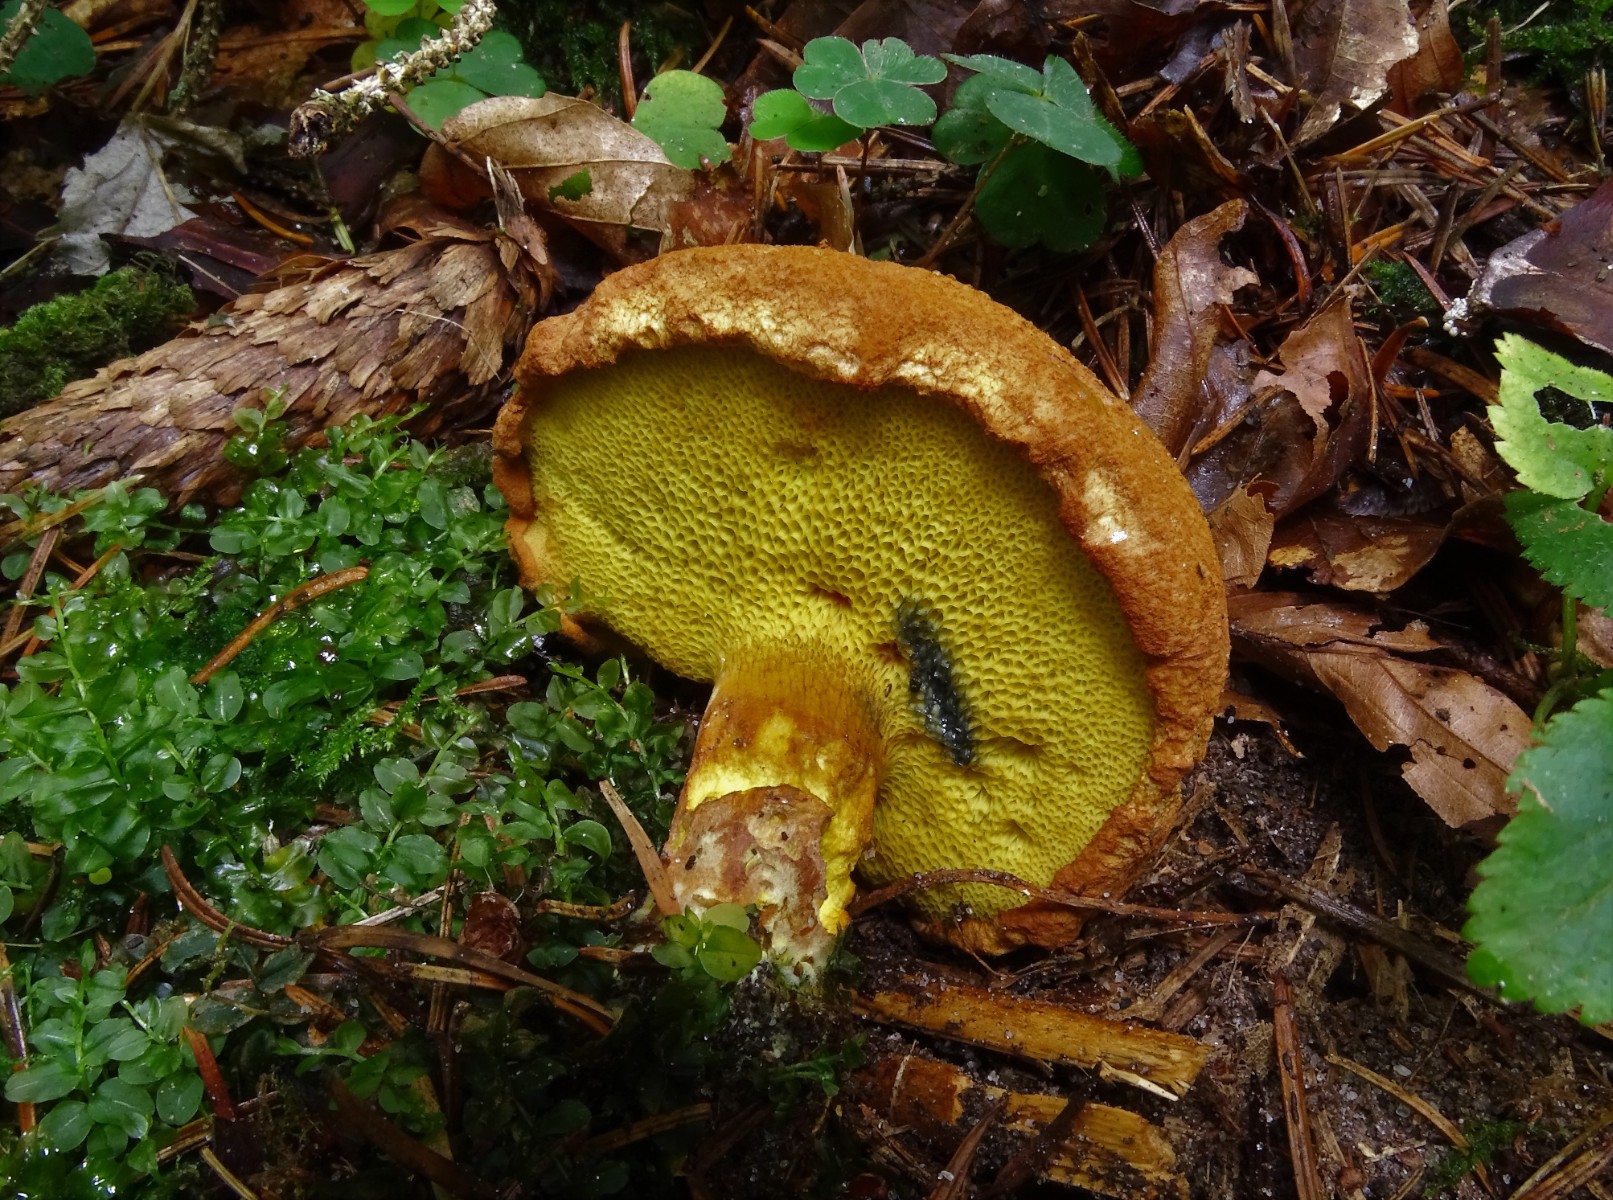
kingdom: Fungi
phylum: Basidiomycota
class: Agaricomycetes
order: Boletales
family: Boletaceae
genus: Buchwaldoboletus
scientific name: Buchwaldoboletus lignicola
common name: stødrørhat
